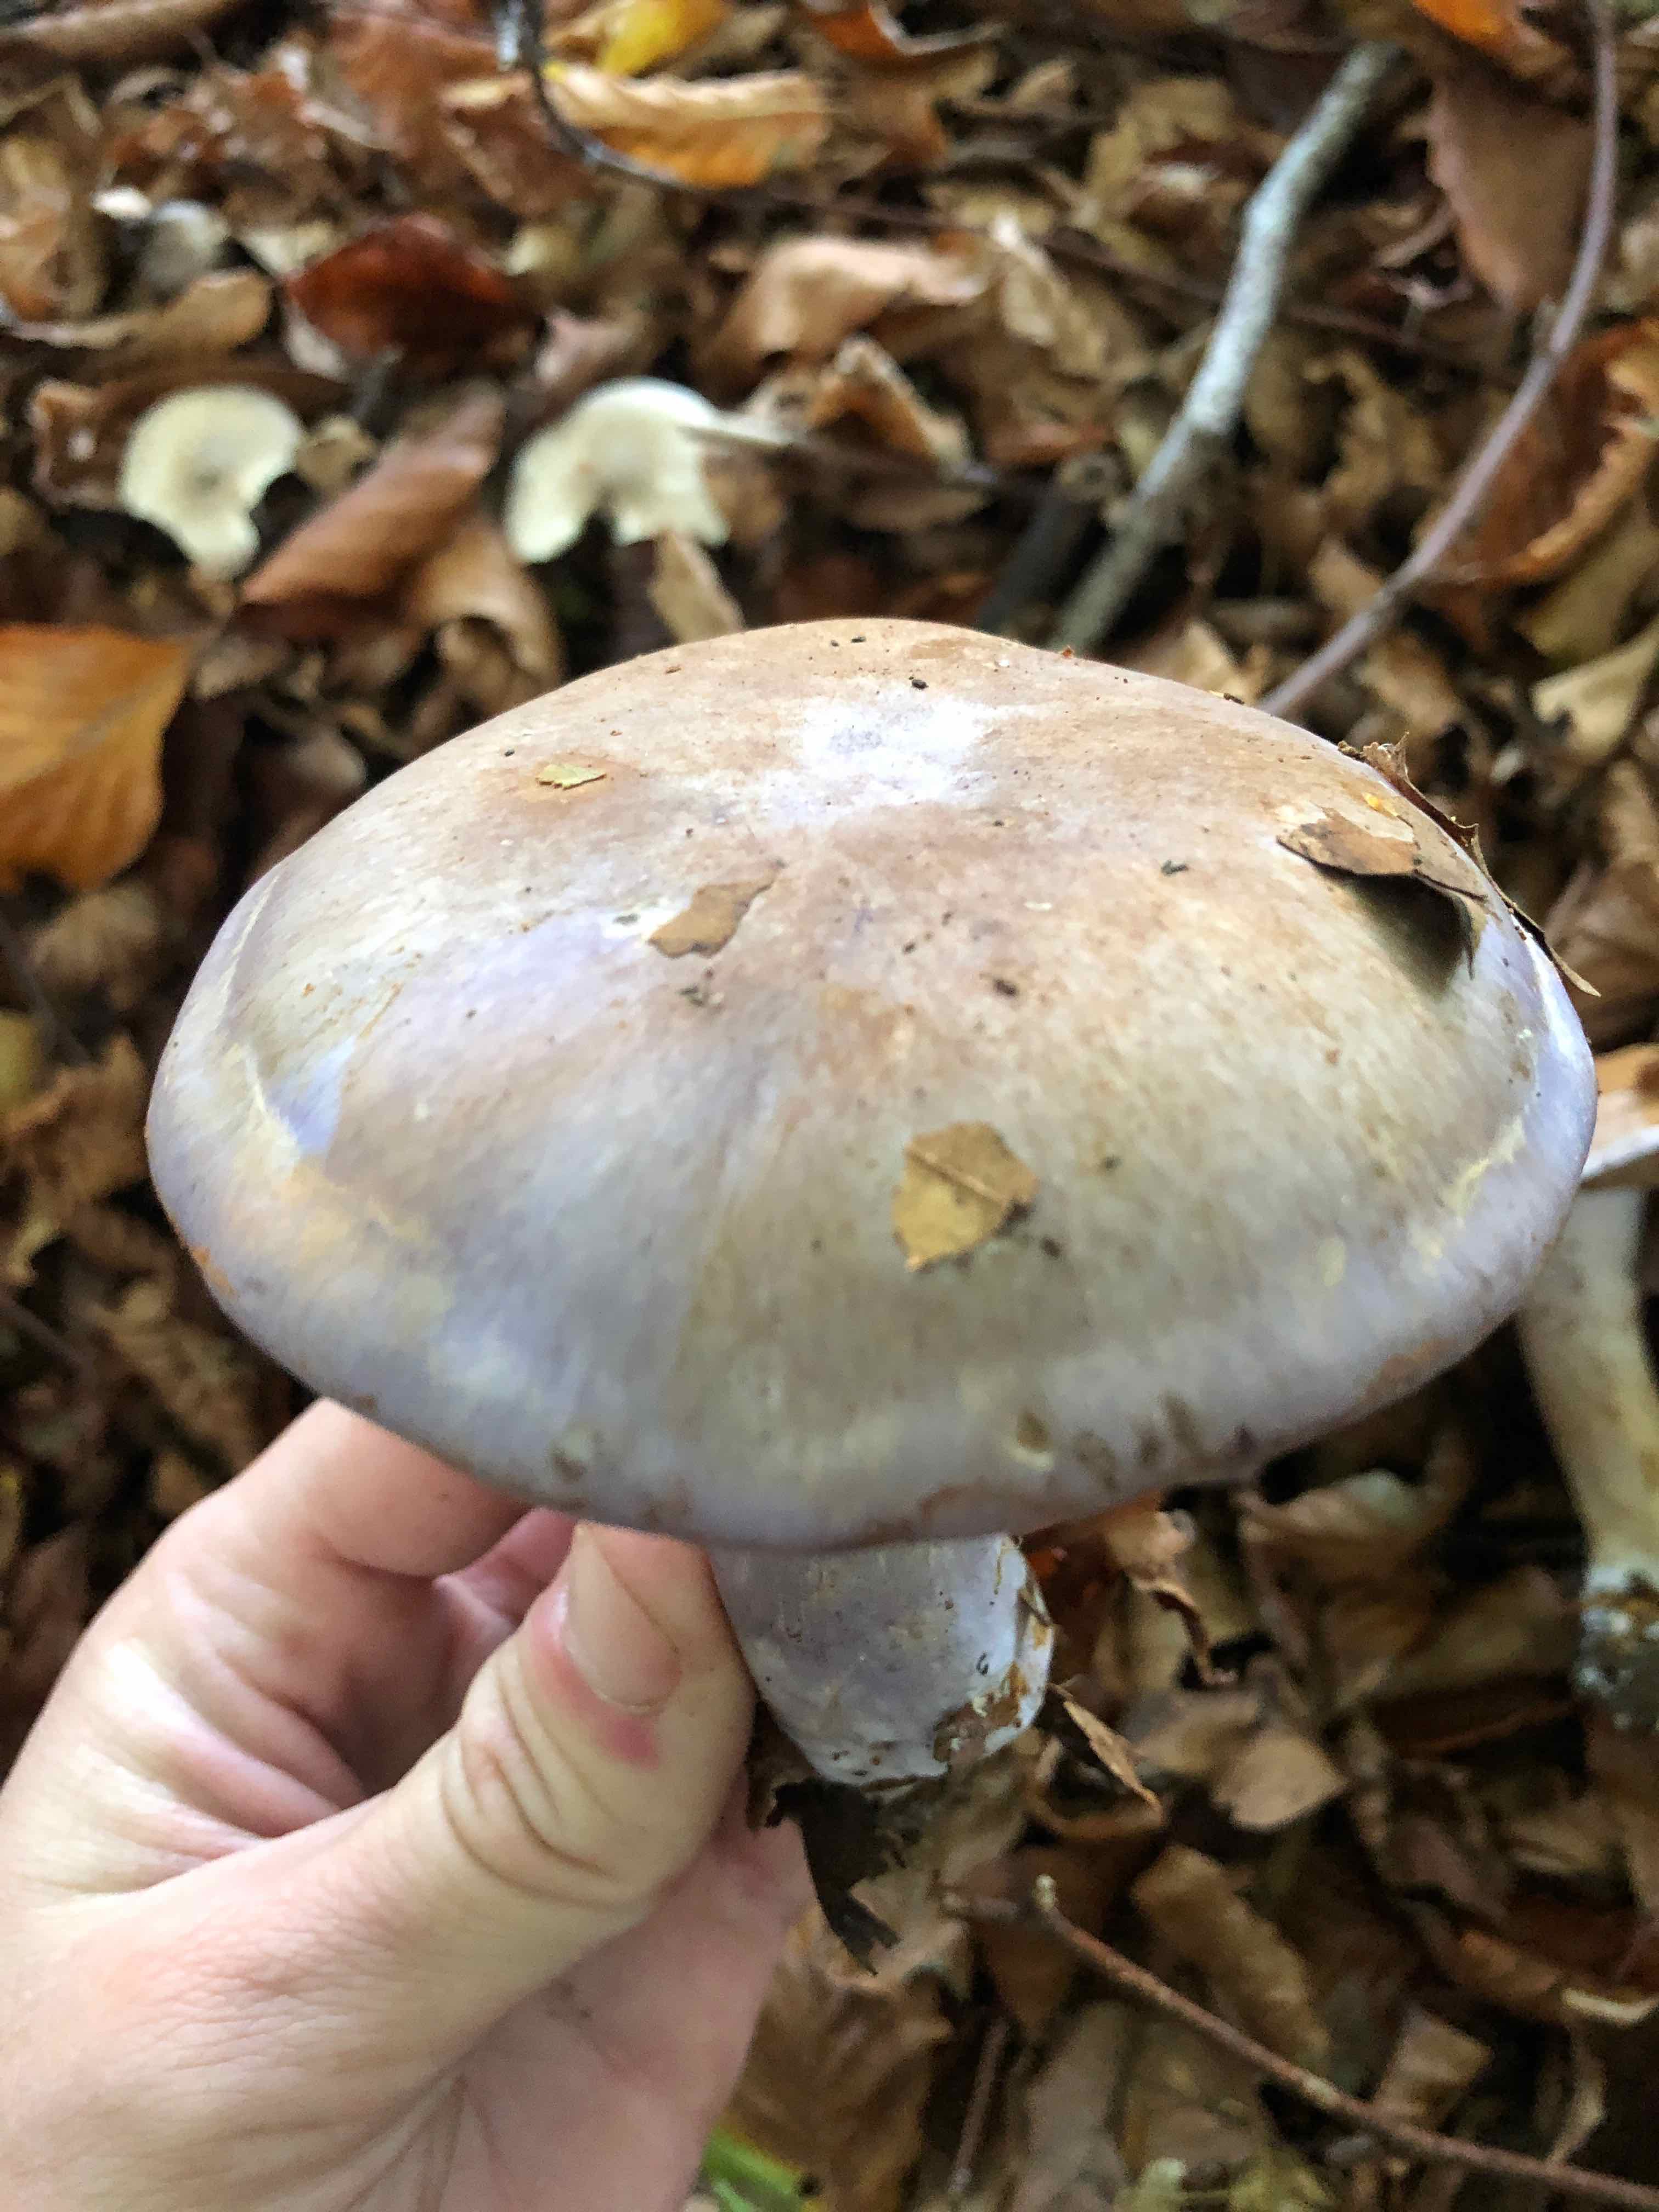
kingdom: Fungi
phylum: Basidiomycota
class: Agaricomycetes
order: Agaricales
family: Cortinariaceae
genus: Cortinarius
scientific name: Cortinarius largus
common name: violetrandet slørhat
